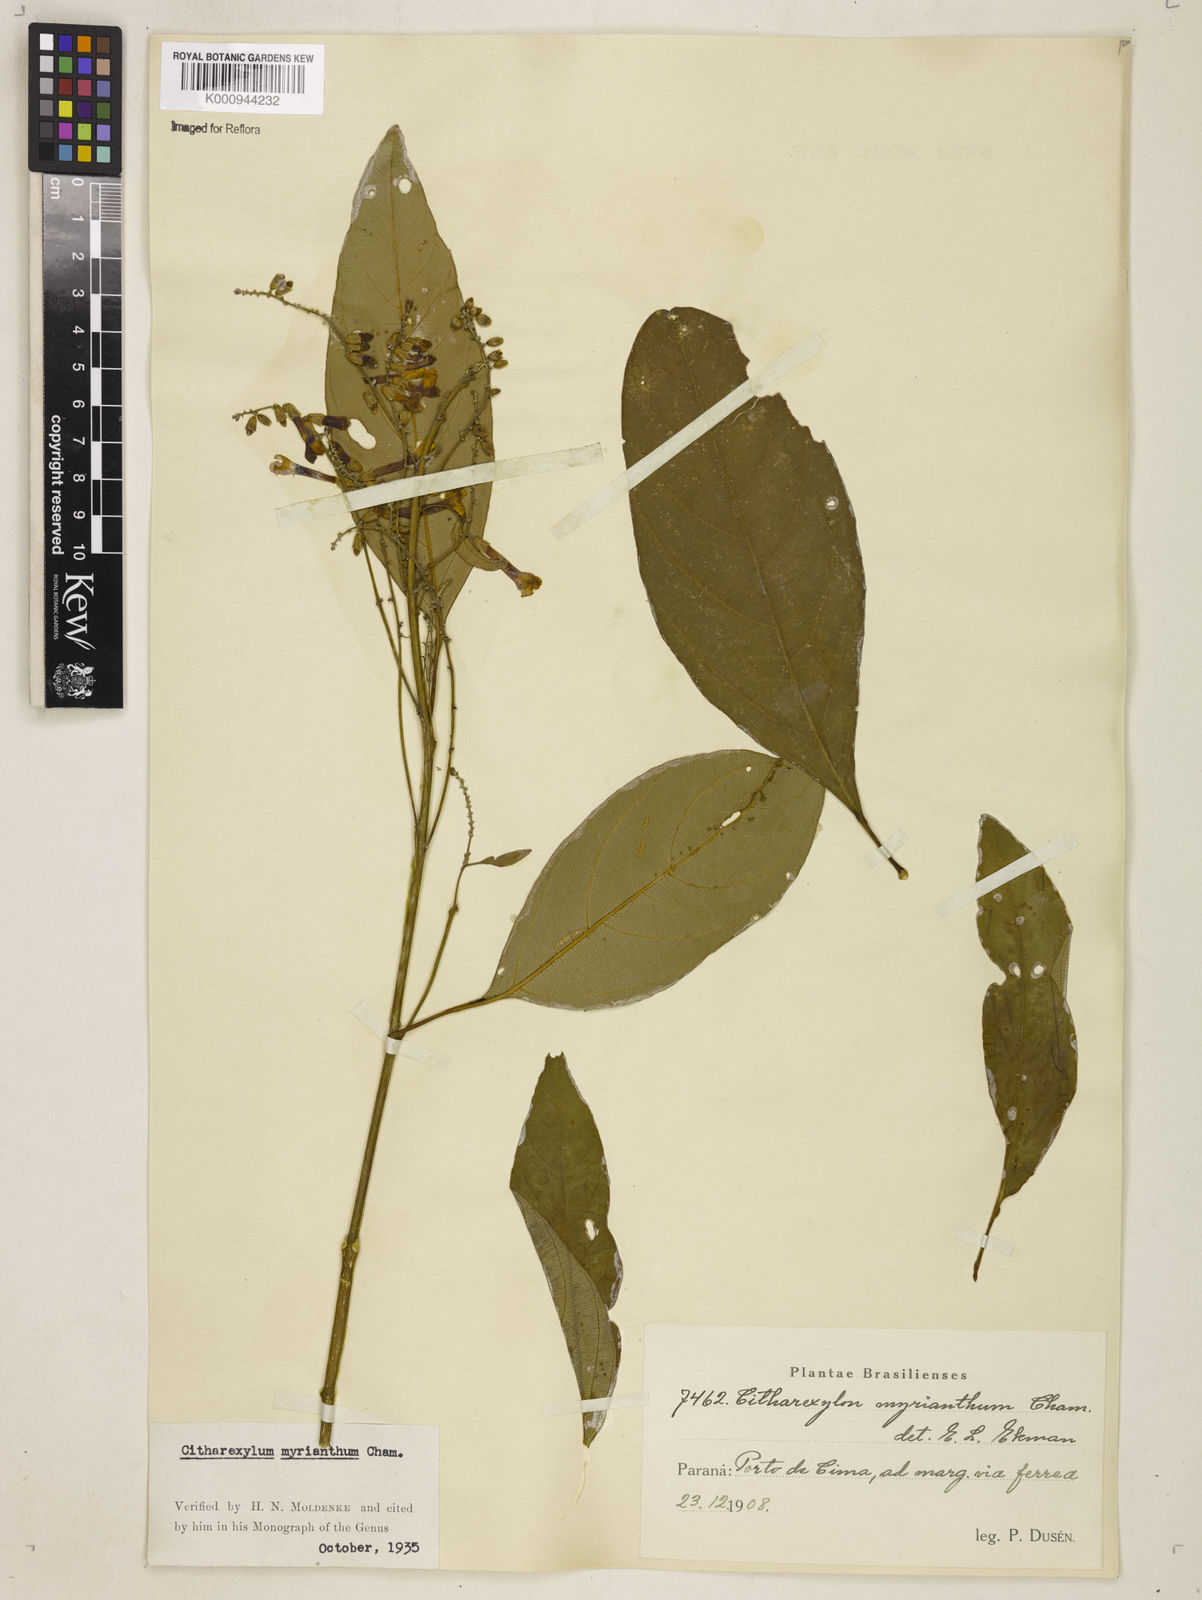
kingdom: Plantae
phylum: Tracheophyta
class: Magnoliopsida
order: Lamiales
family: Verbenaceae
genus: Citharexylum
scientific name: Citharexylum myrianthum
